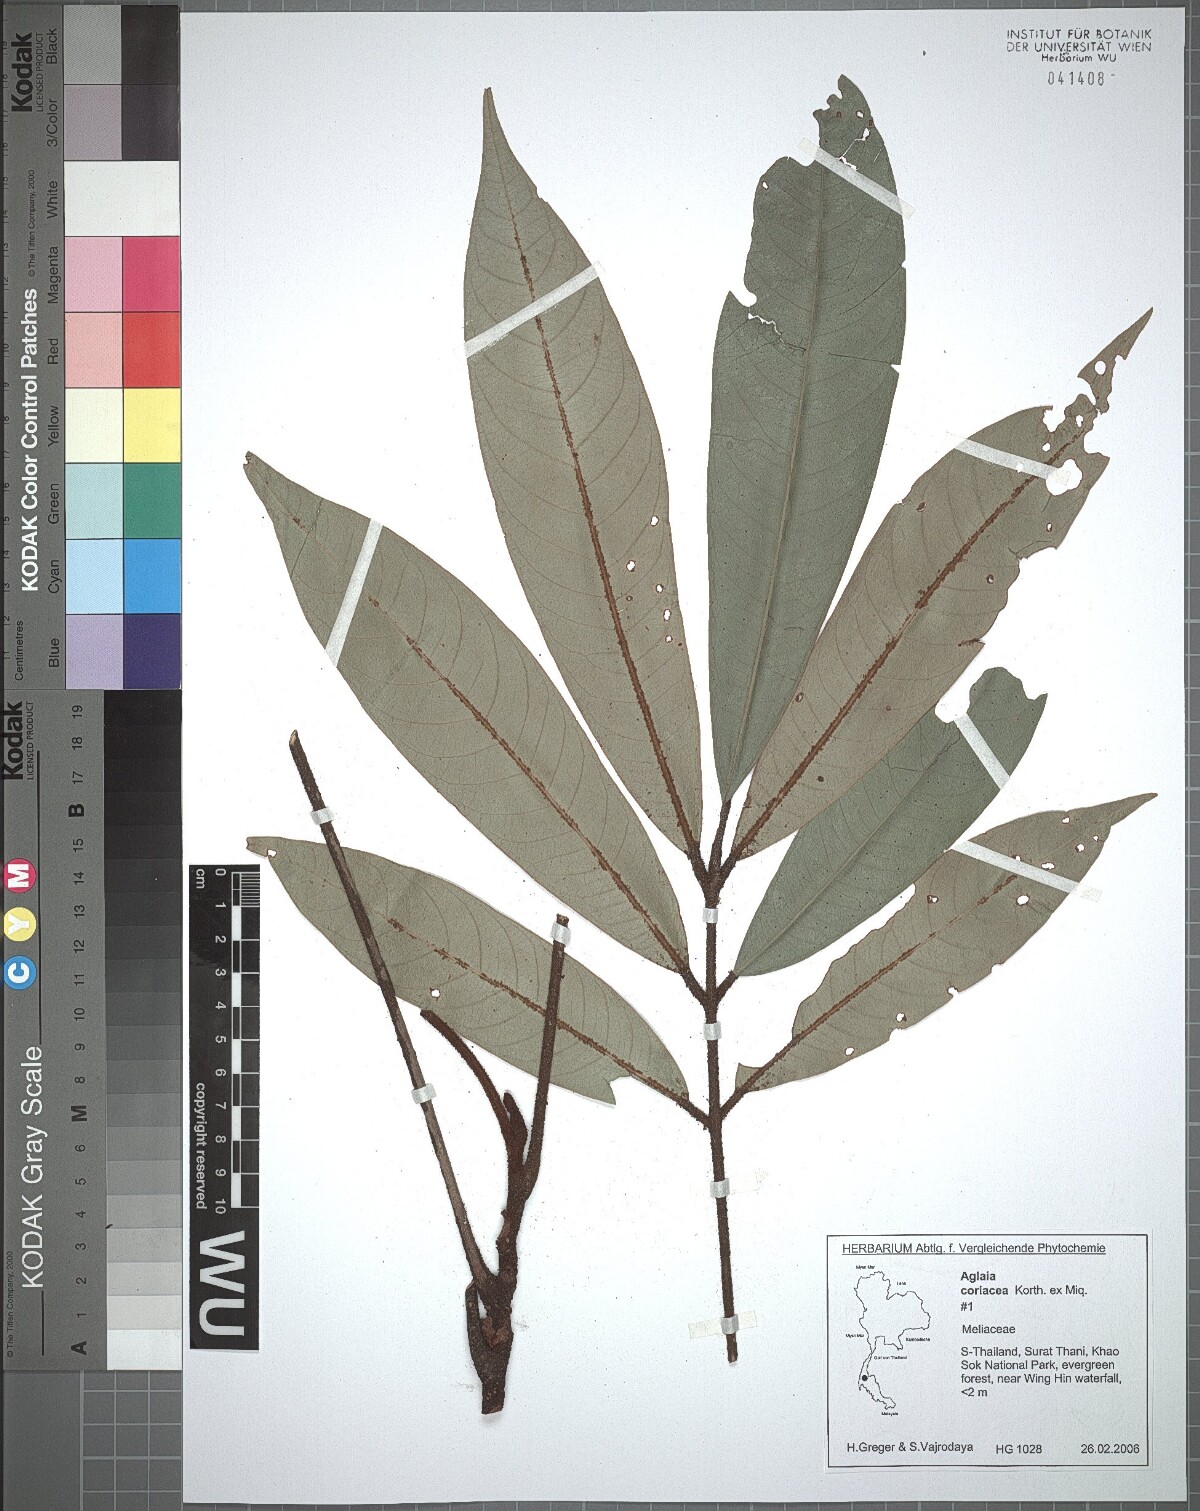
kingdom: Plantae
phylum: Tracheophyta
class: Magnoliopsida
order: Sapindales
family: Meliaceae
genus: Aglaia
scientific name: Aglaia coriacea
